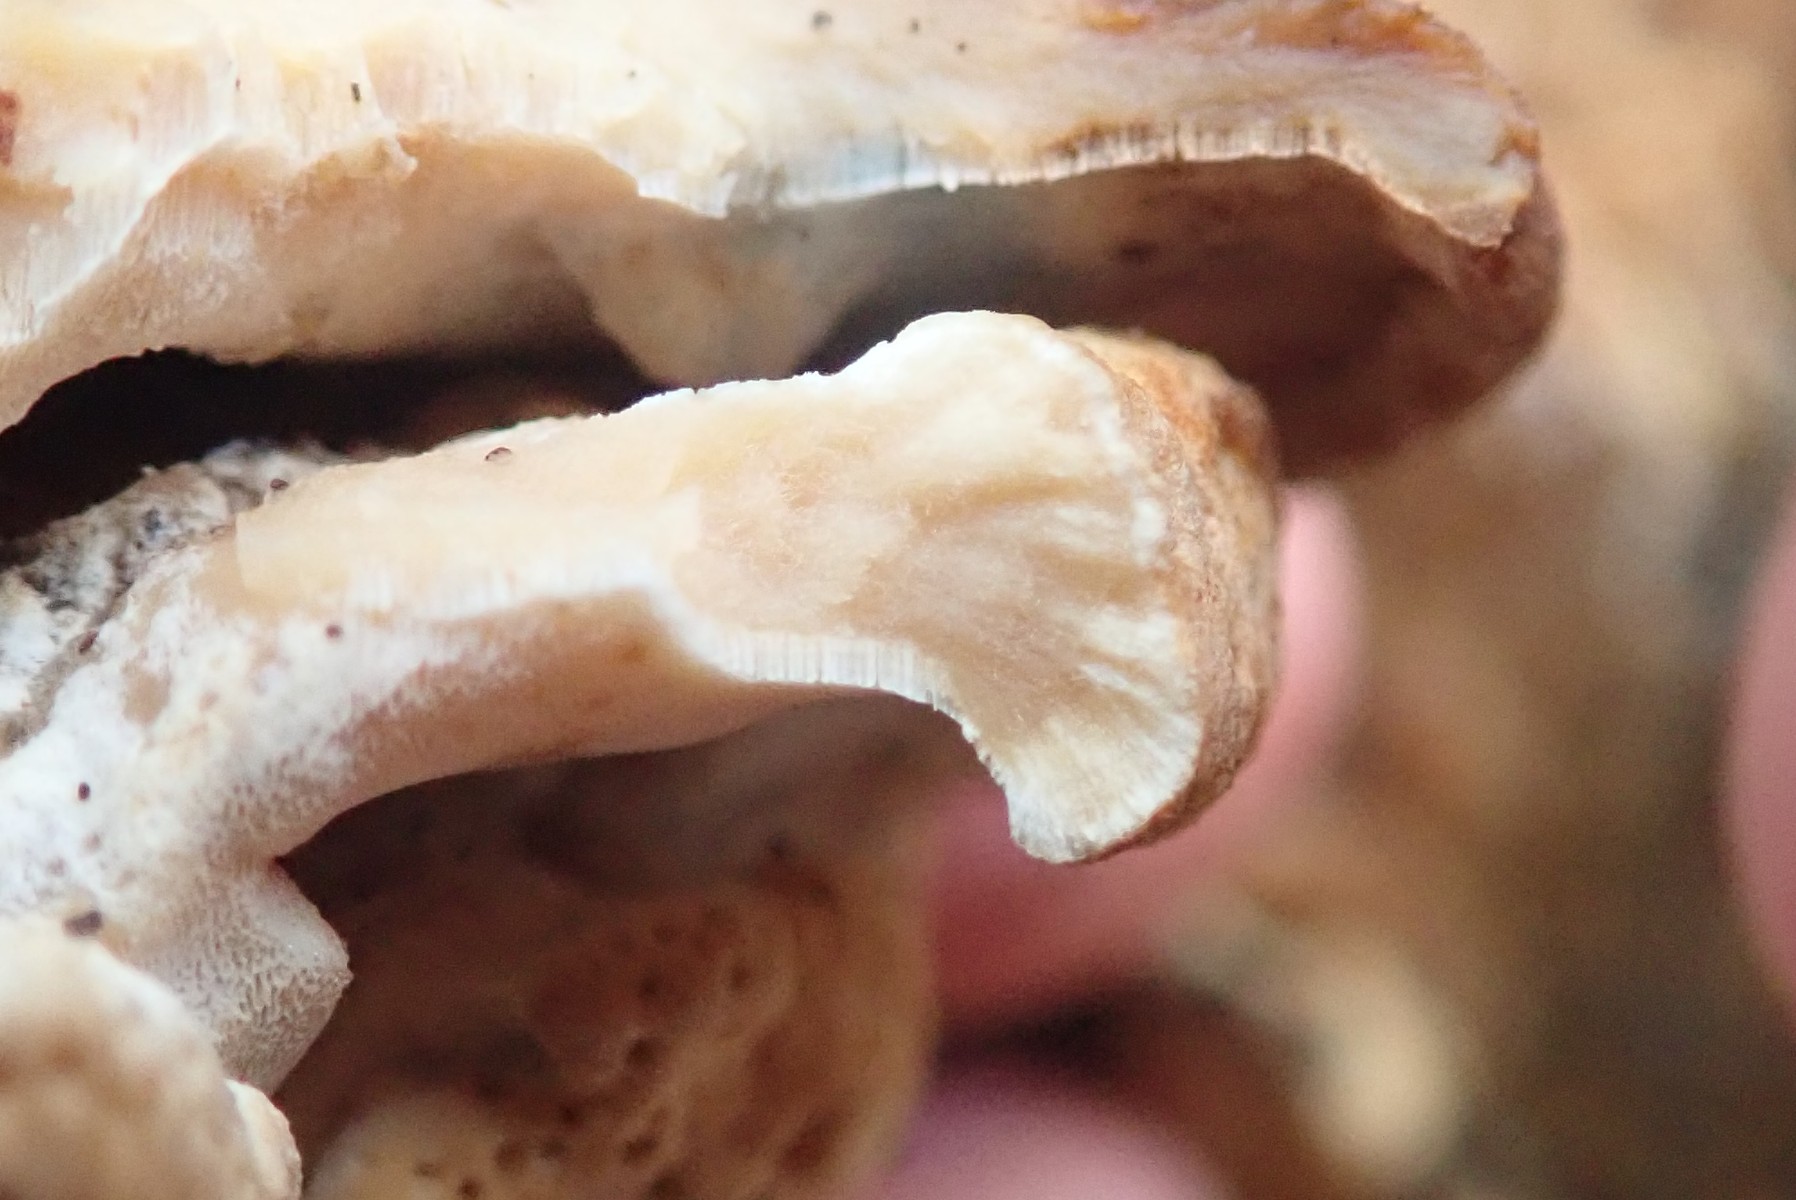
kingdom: Fungi
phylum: Basidiomycota
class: Agaricomycetes
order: Polyporales
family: Incrustoporiaceae
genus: Skeletocutis
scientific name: Skeletocutis nemoralis
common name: stor krystalporesvamp
